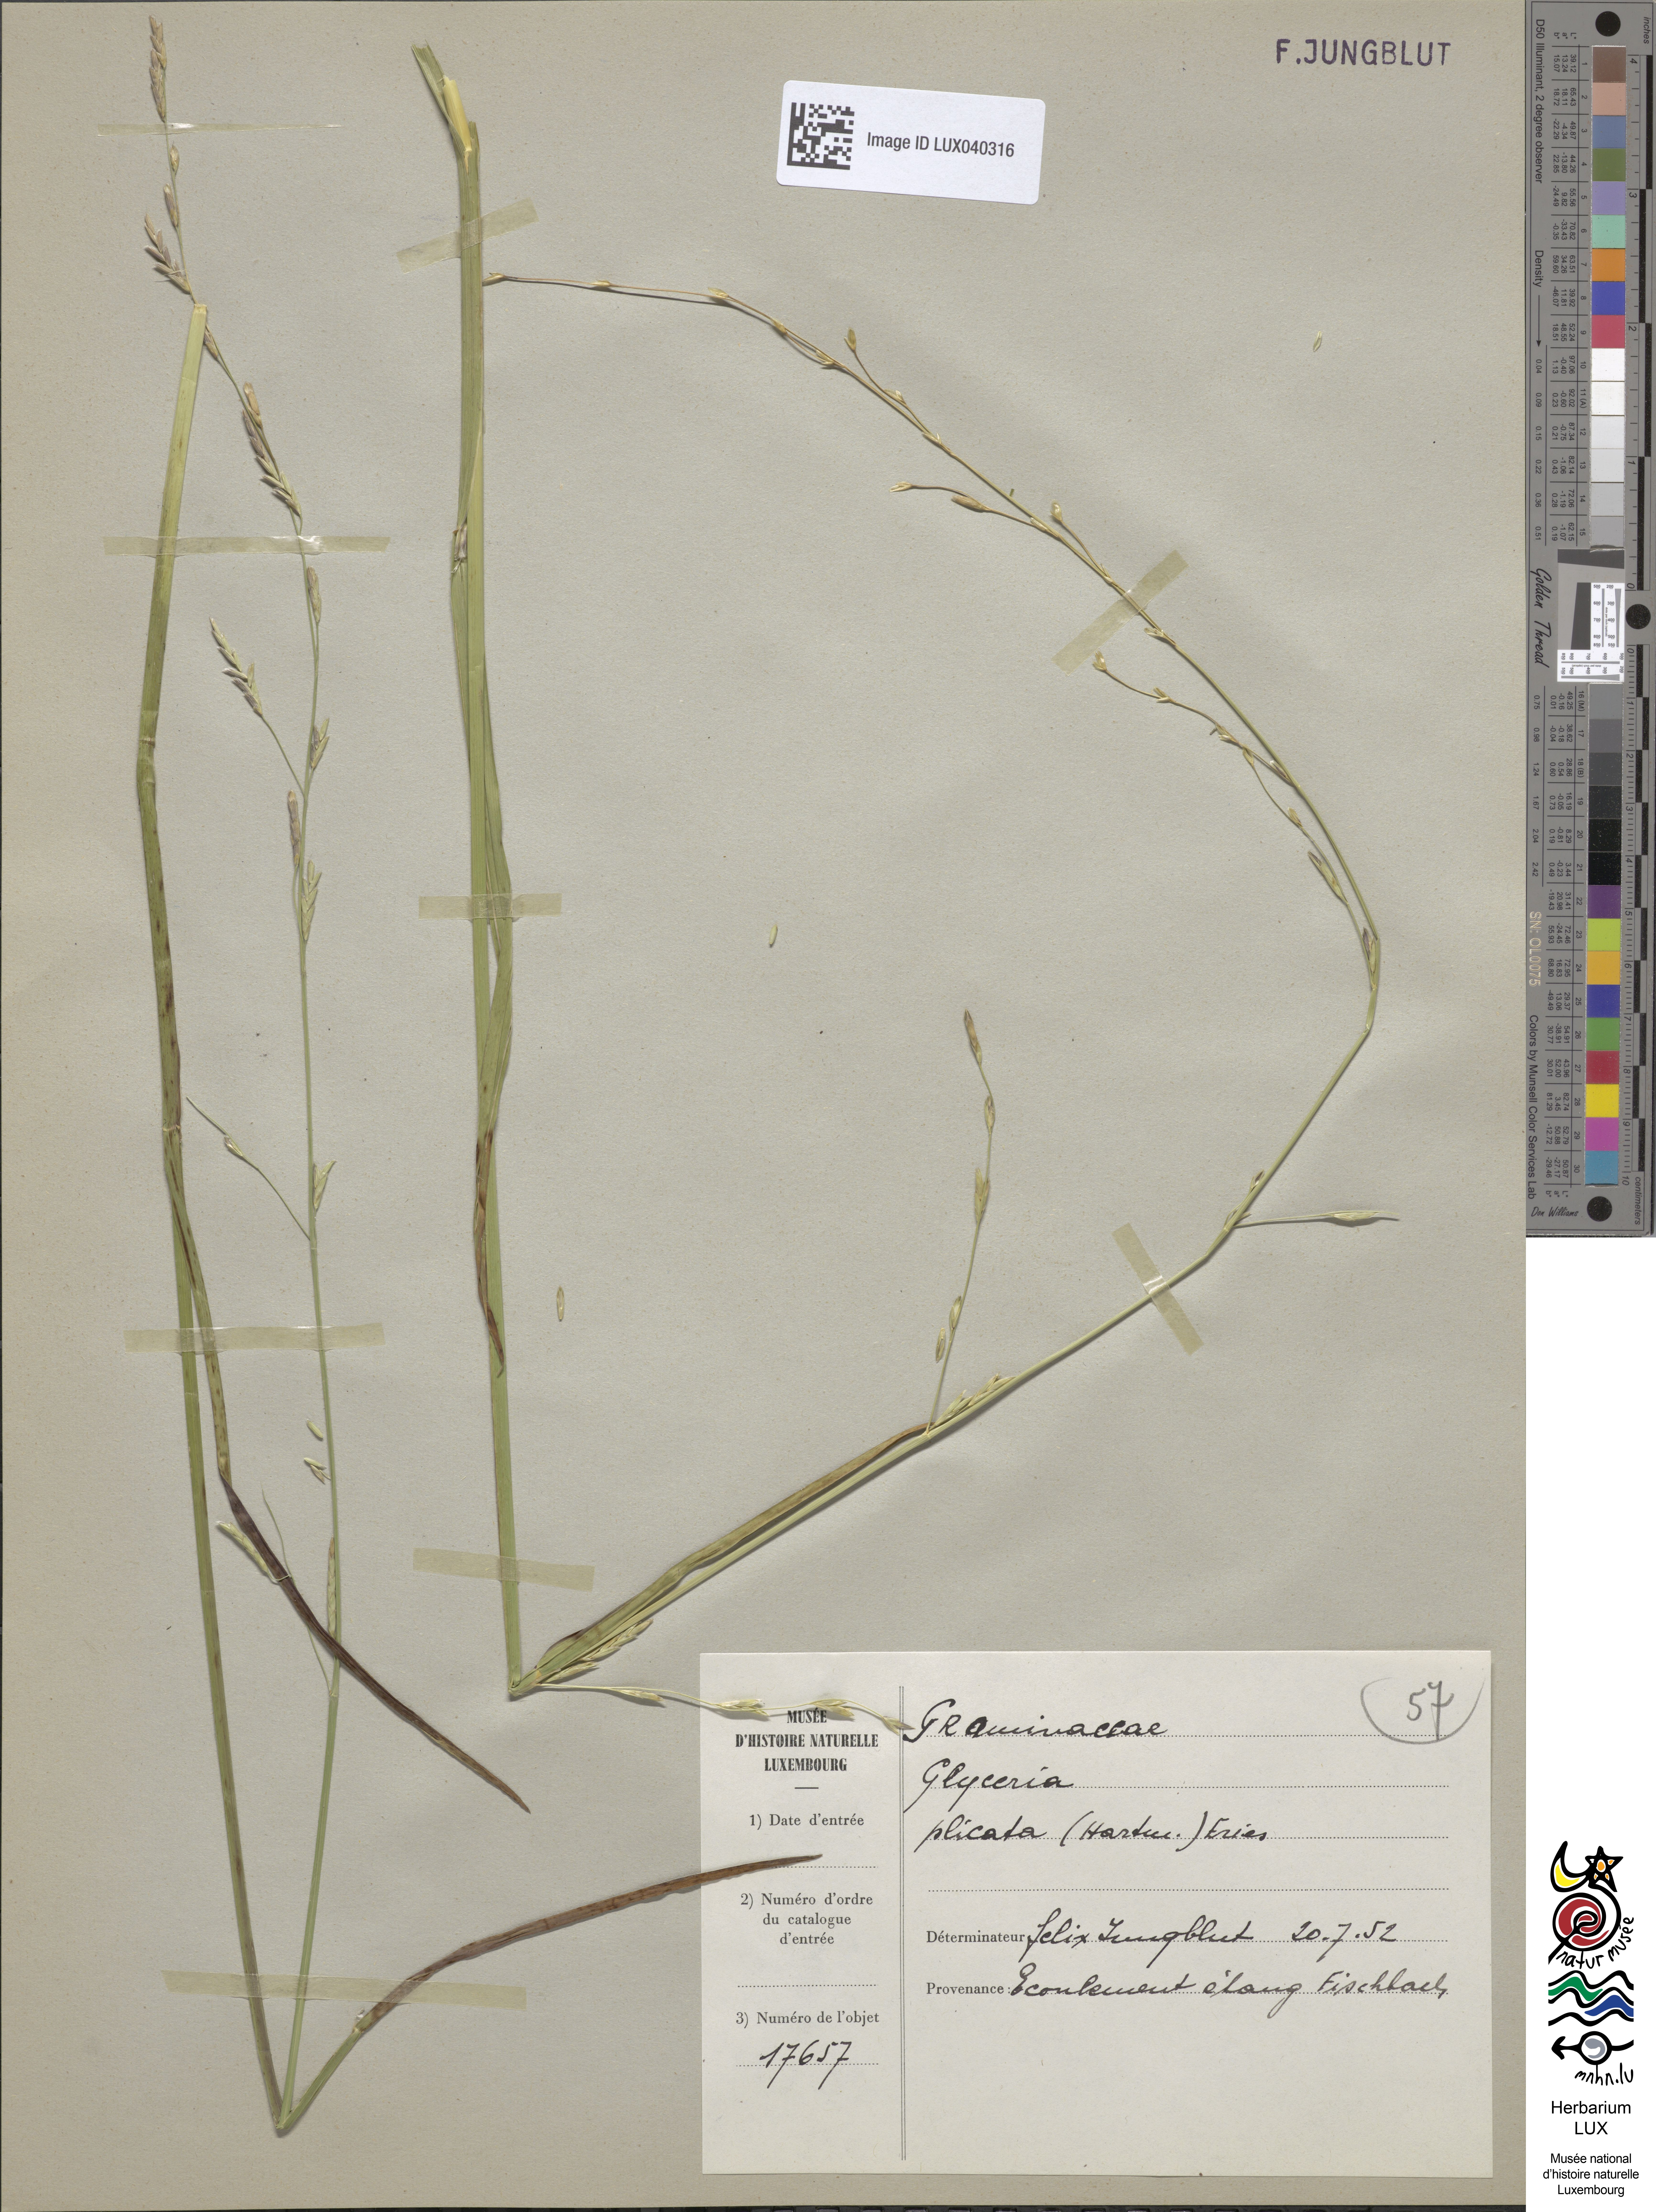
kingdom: Plantae
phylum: Tracheophyta
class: Liliopsida
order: Poales
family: Poaceae
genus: Glyceria
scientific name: Glyceria notata
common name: Plicate sweet-grass
